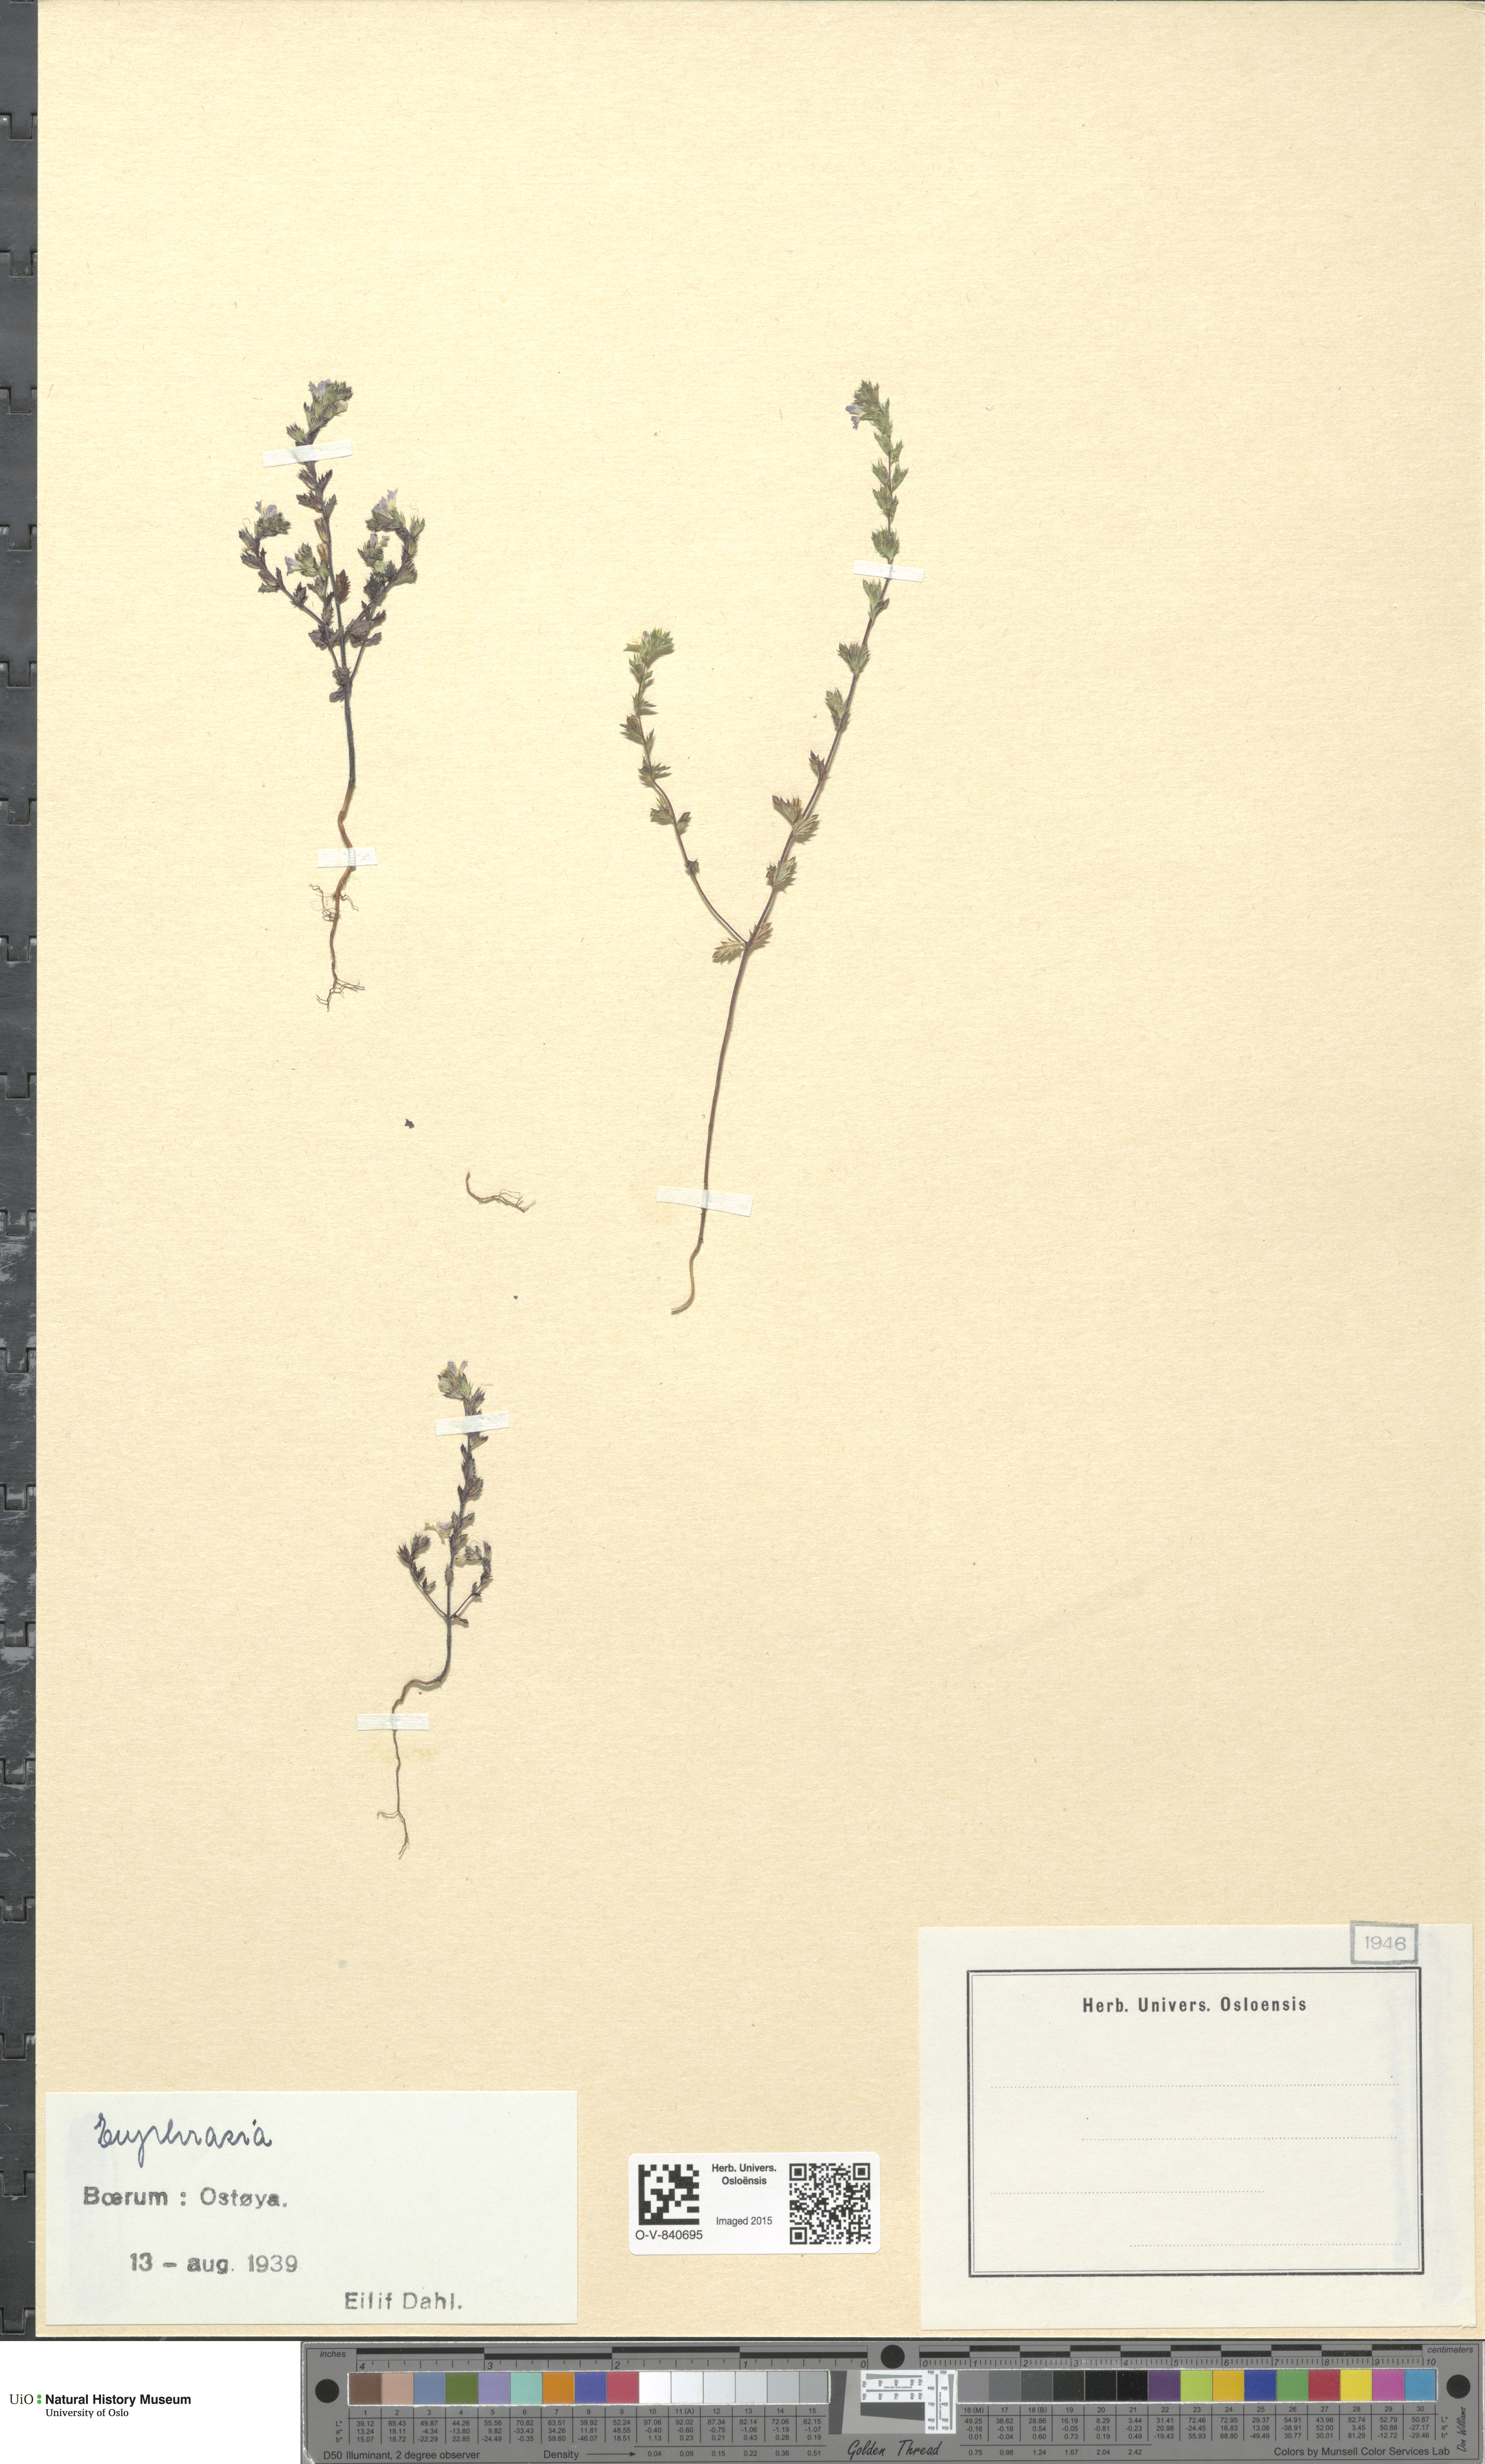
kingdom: Plantae
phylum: Tracheophyta
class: Magnoliopsida
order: Lamiales
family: Orobanchaceae
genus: Euphrasia
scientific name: Euphrasia
